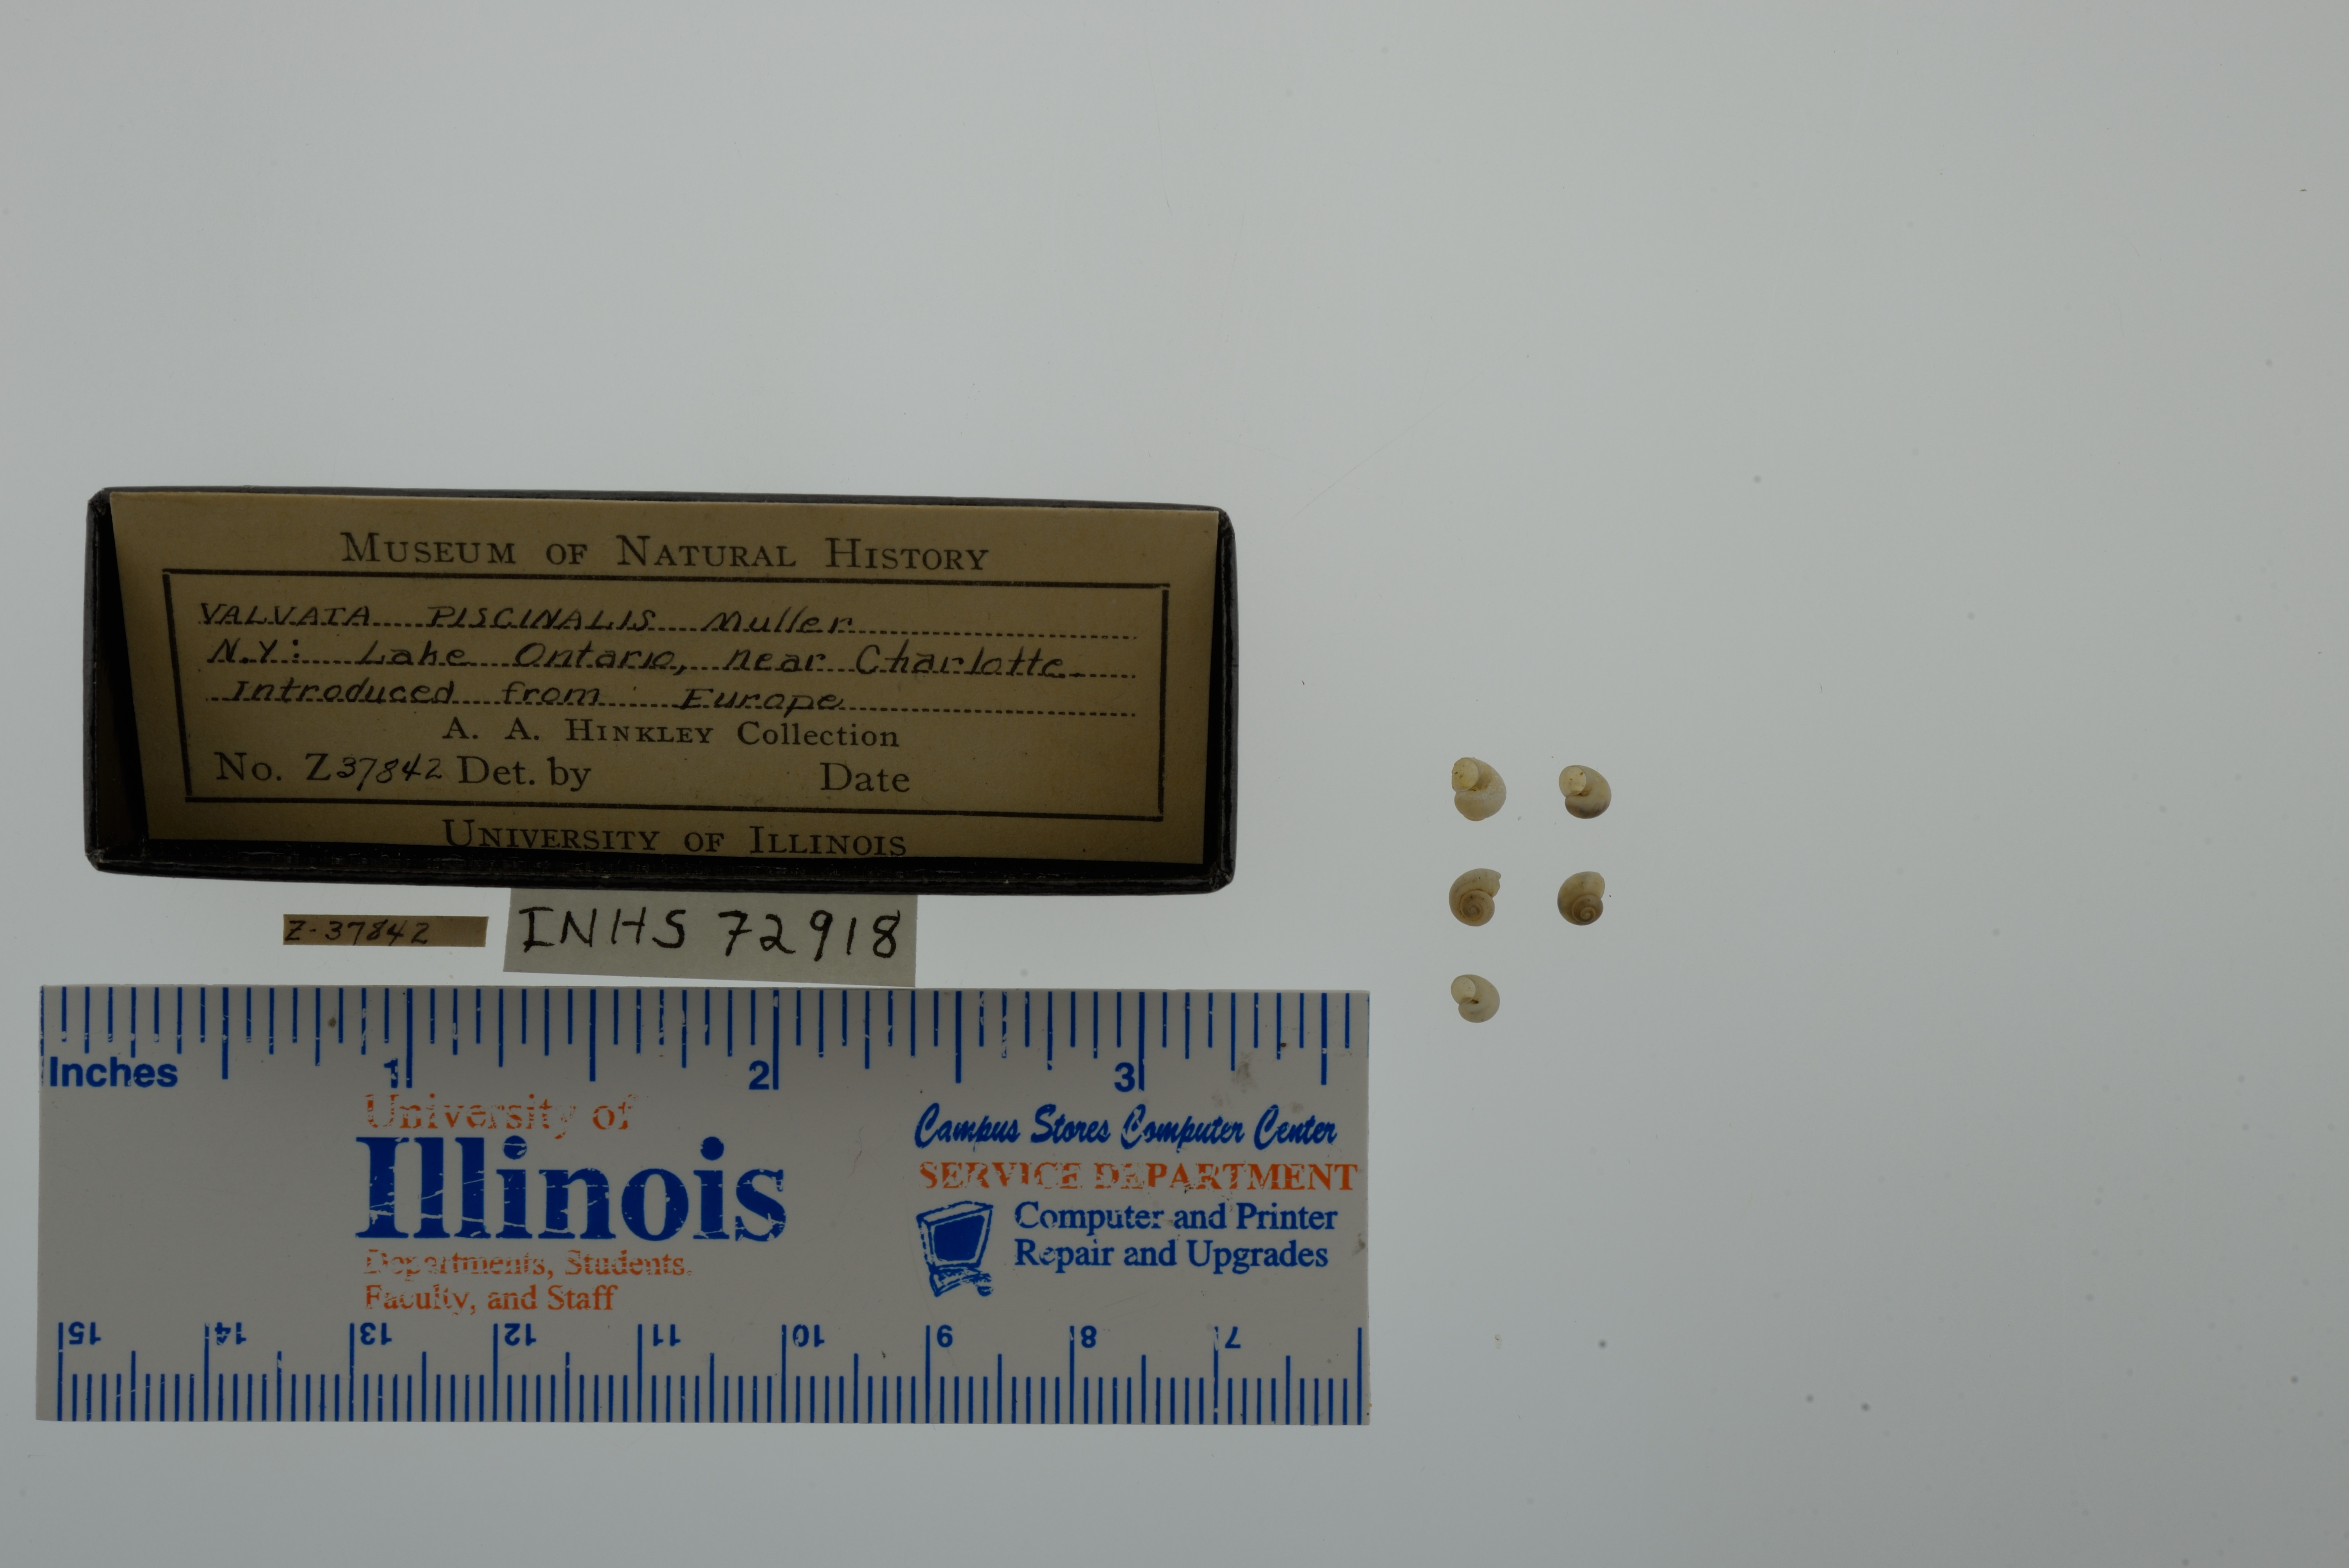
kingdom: Animalia
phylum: Mollusca
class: Gastropoda
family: Valvatidae
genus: Valvata
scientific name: Valvata piscinalis
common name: European valve snail
